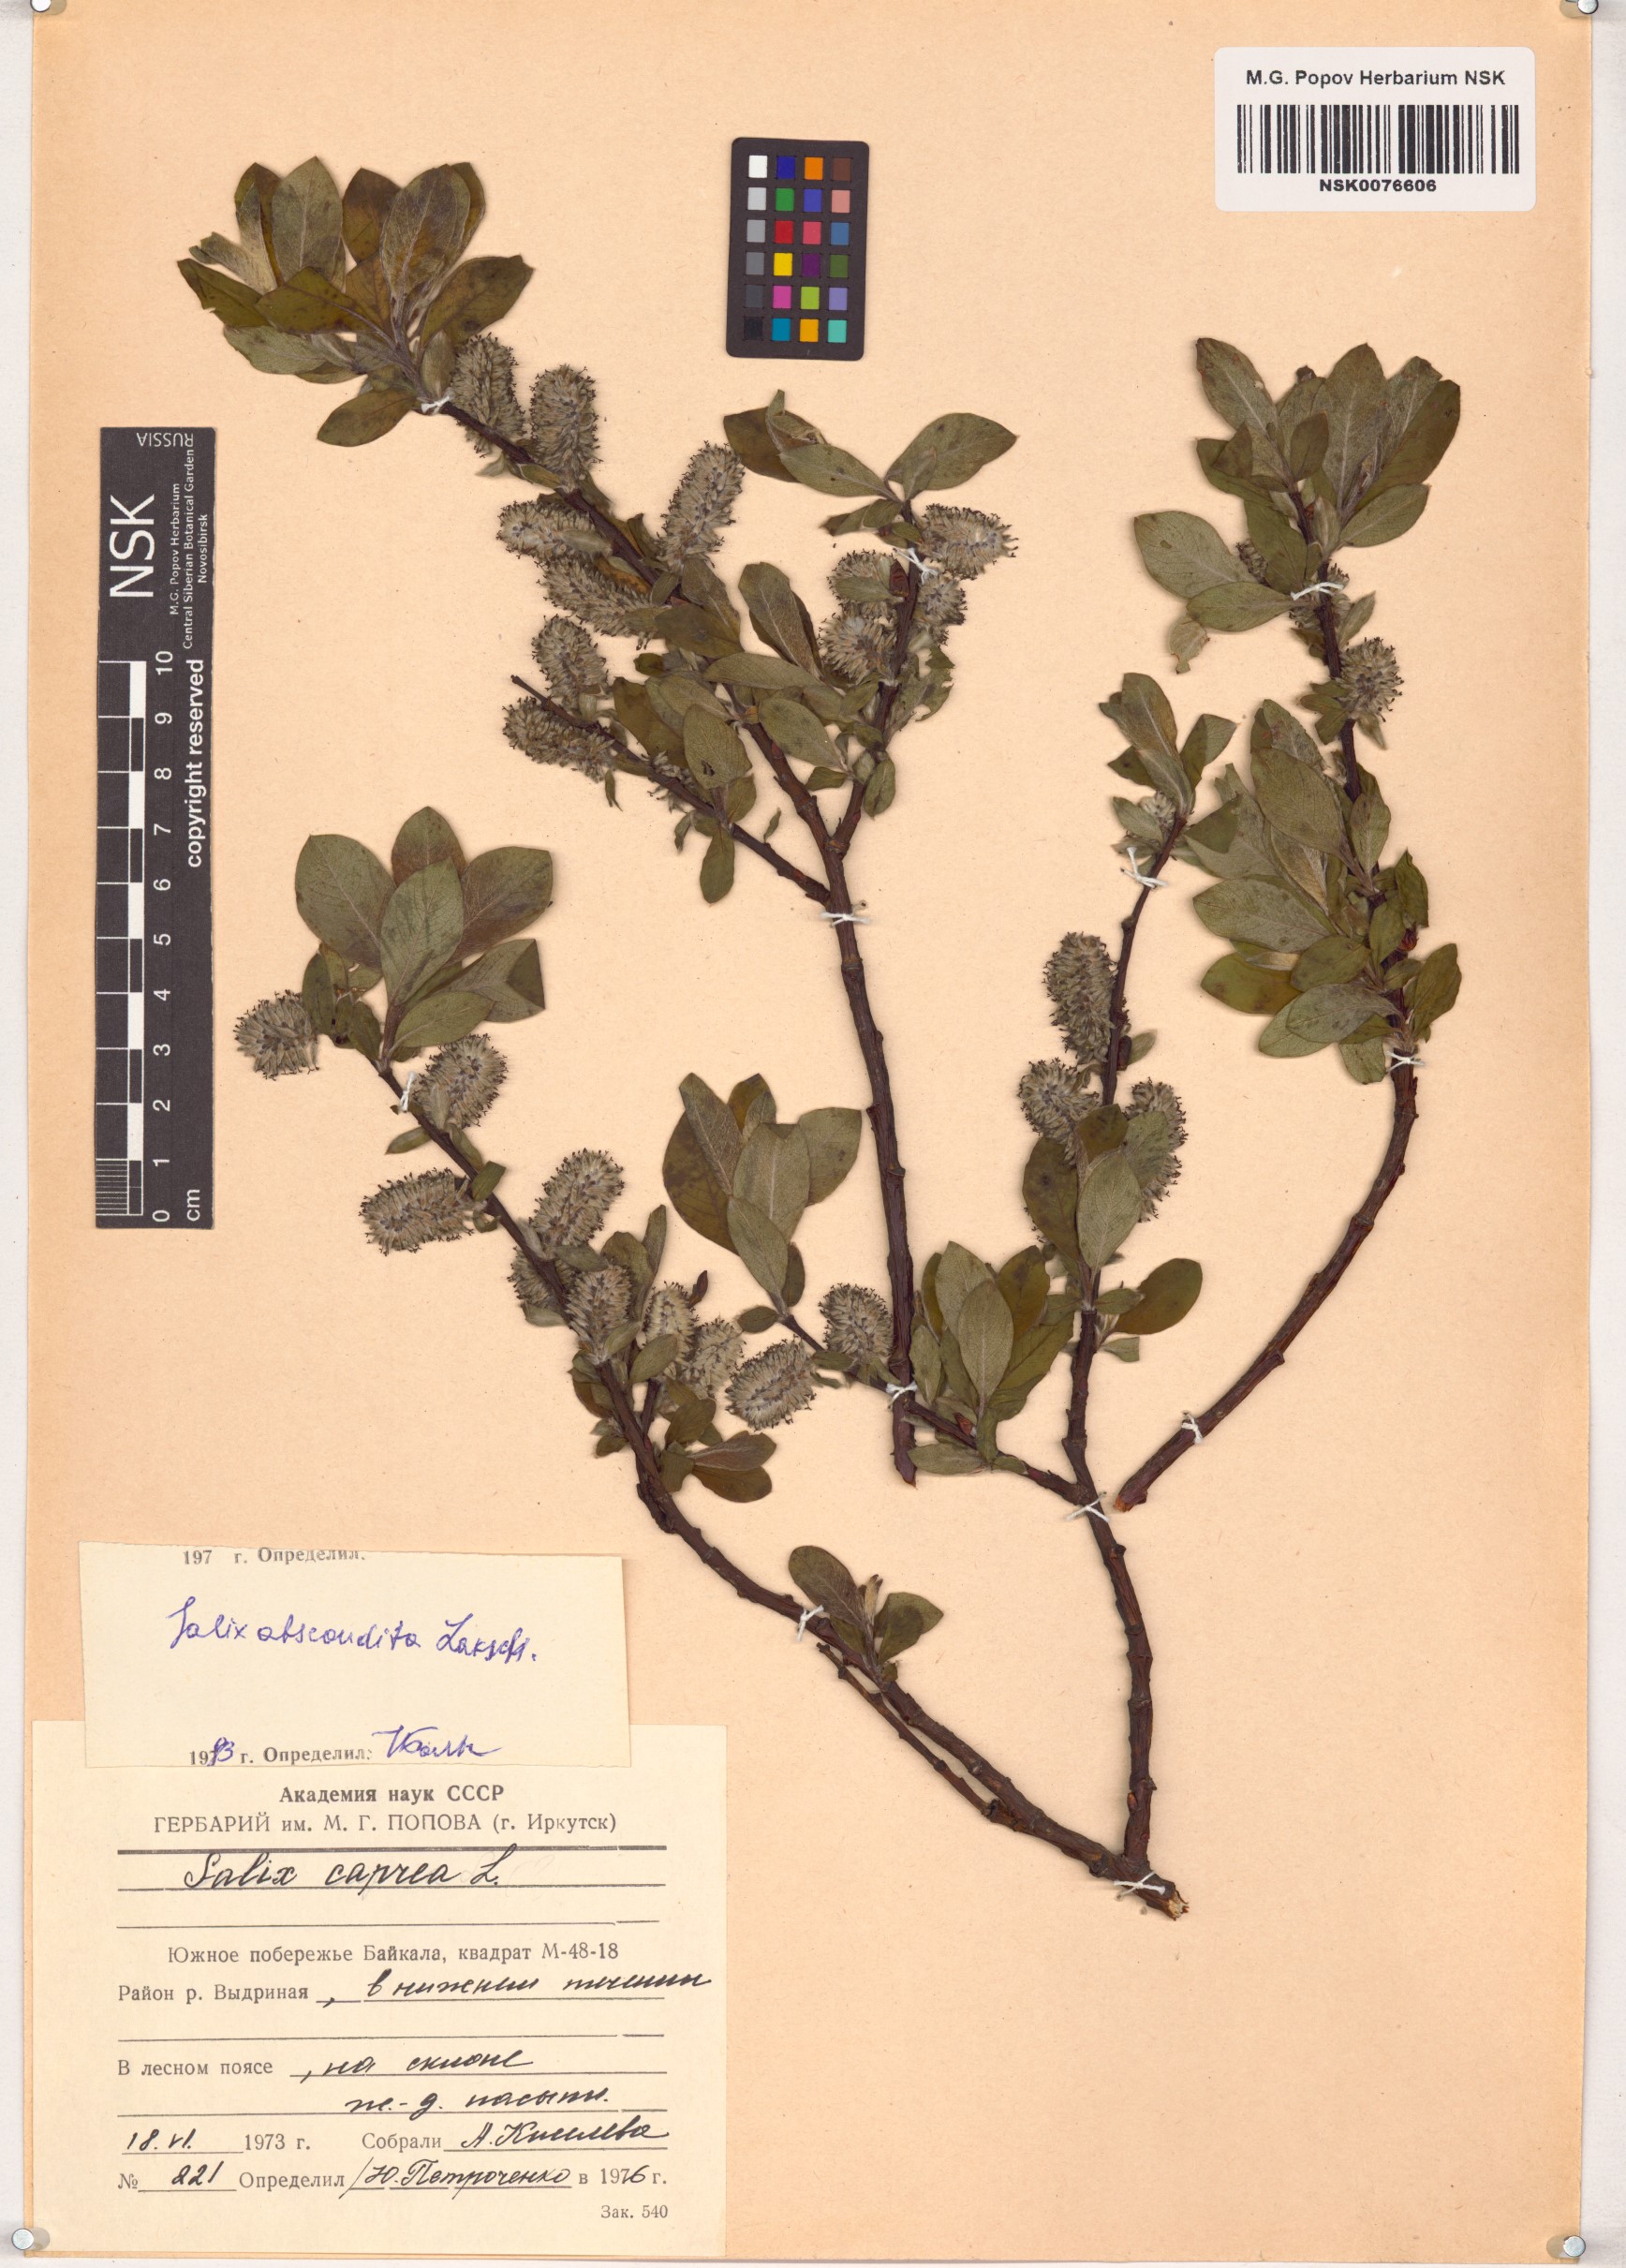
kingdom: Plantae
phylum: Tracheophyta
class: Magnoliopsida
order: Malpighiales
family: Salicaceae
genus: Salix
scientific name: Salix abscondita
